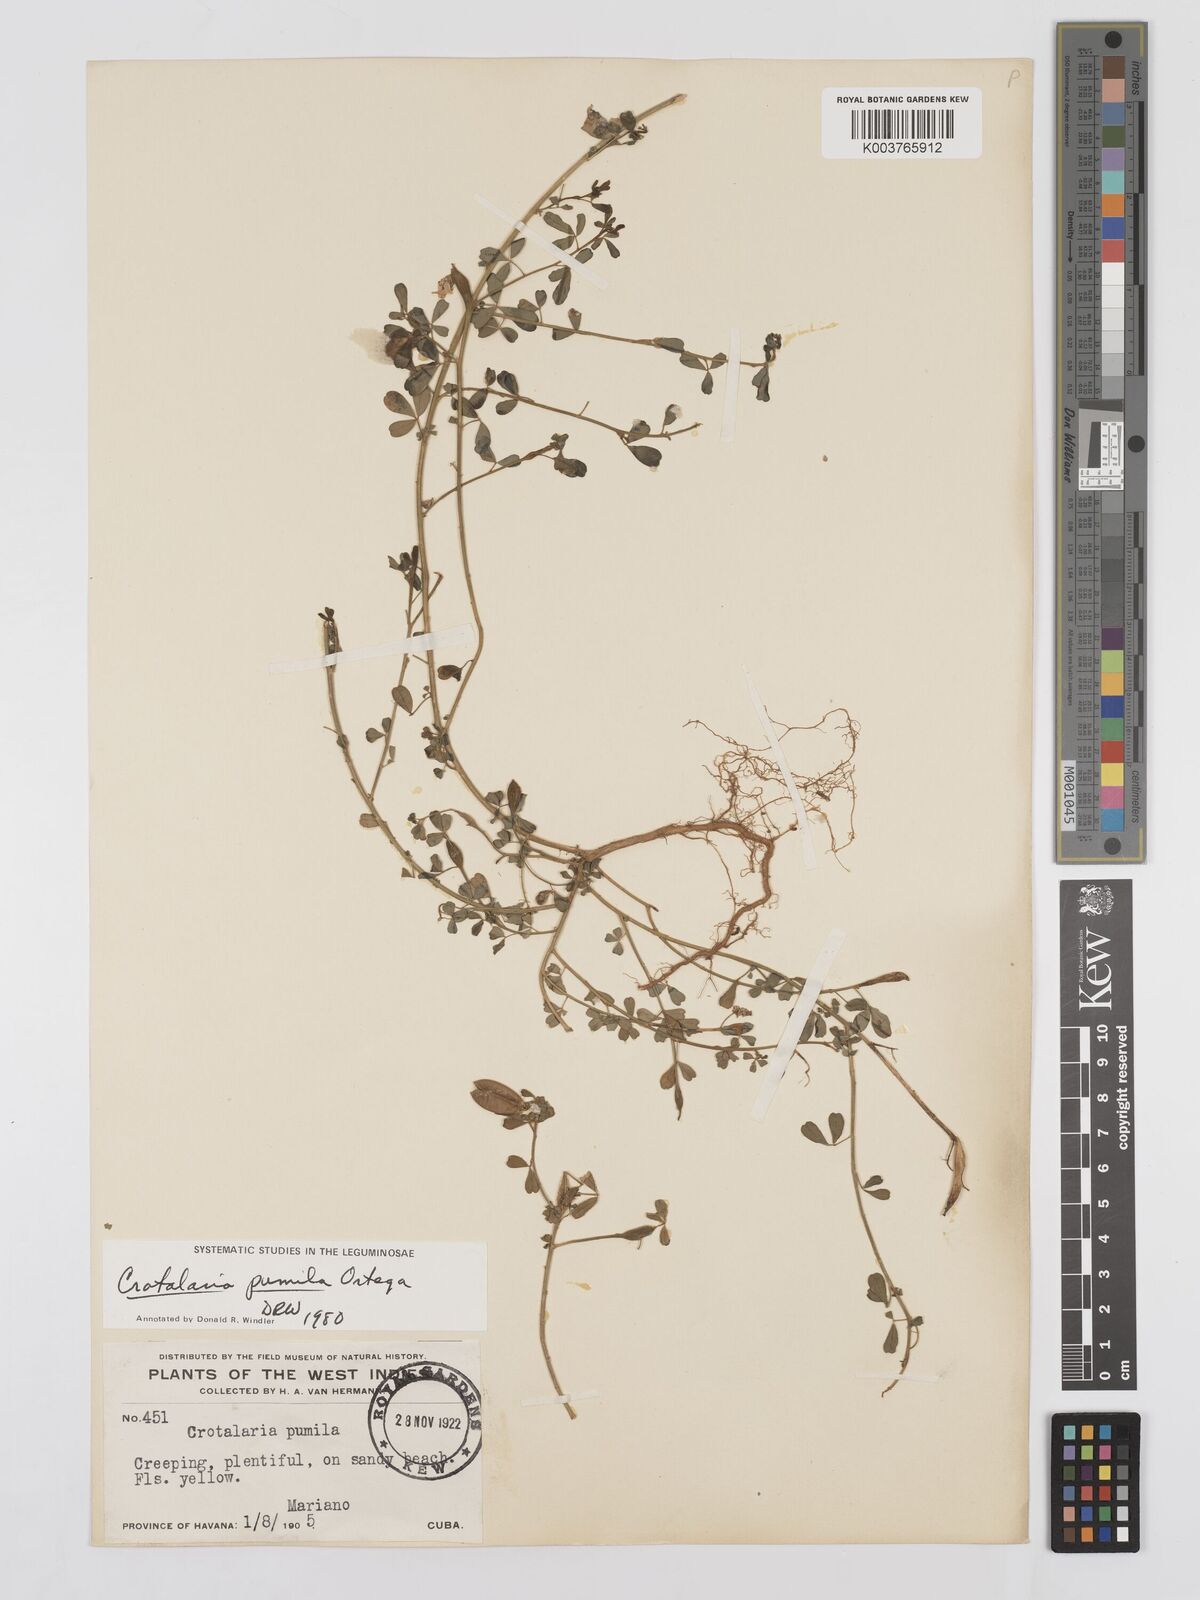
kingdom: Plantae
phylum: Tracheophyta
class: Magnoliopsida
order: Fabales
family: Fabaceae
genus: Crotalaria
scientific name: Crotalaria pumila
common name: Low rattlebox
